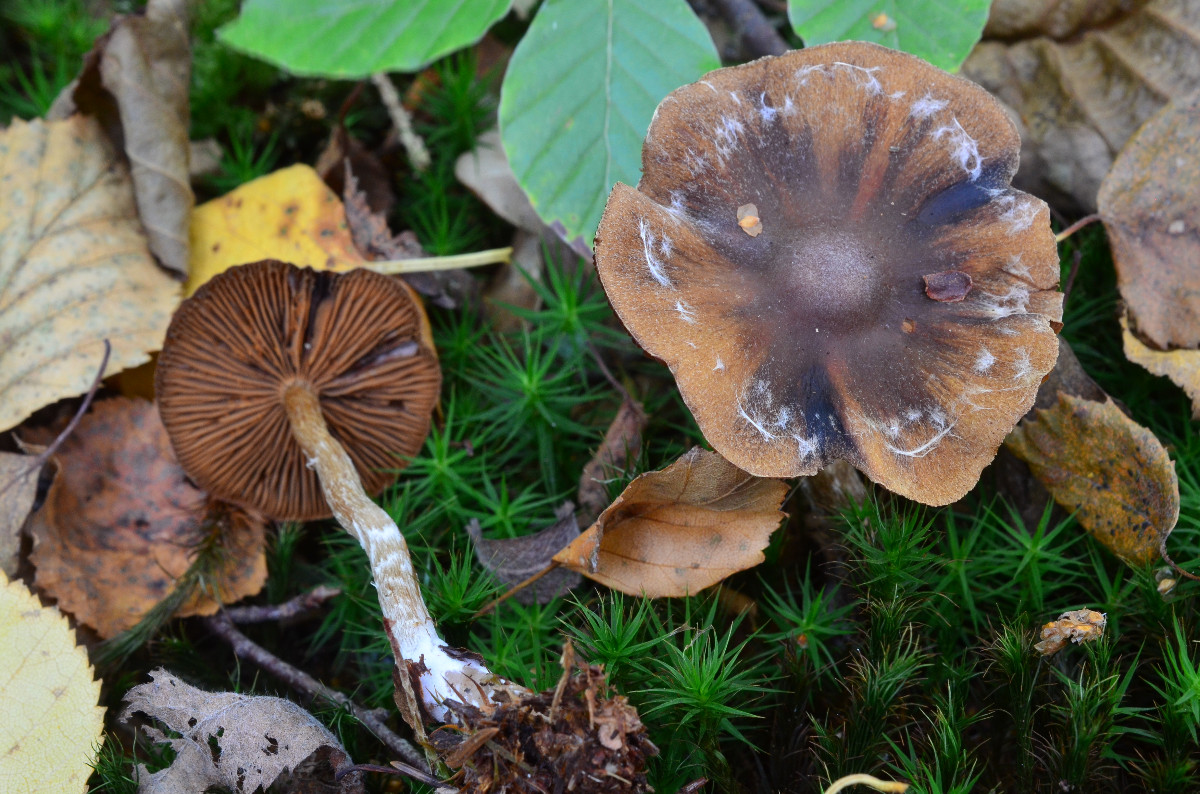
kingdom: Fungi
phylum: Basidiomycota
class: Agaricomycetes
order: Agaricales
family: Cortinariaceae
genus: Cortinarius
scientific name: Cortinarius
